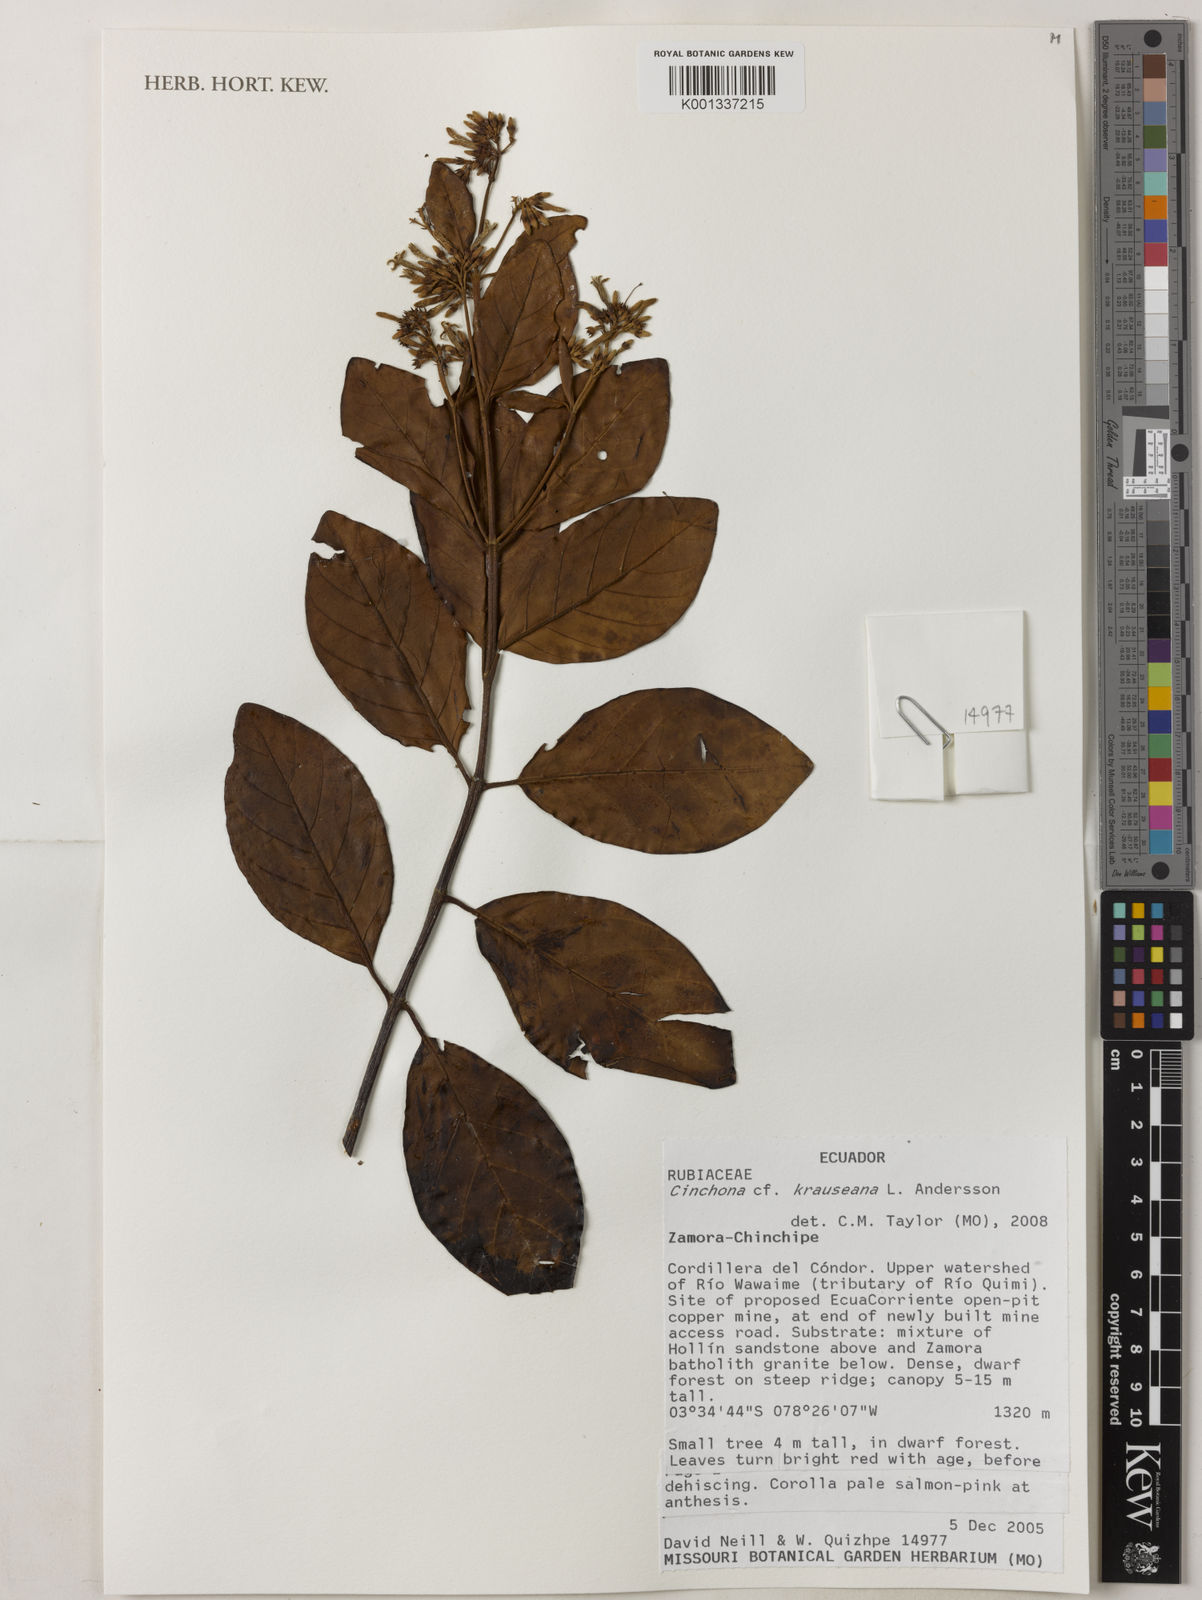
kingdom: Plantae
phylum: Tracheophyta
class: Magnoliopsida
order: Gentianales
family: Rubiaceae
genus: Cinchona
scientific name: Cinchona krauseana
